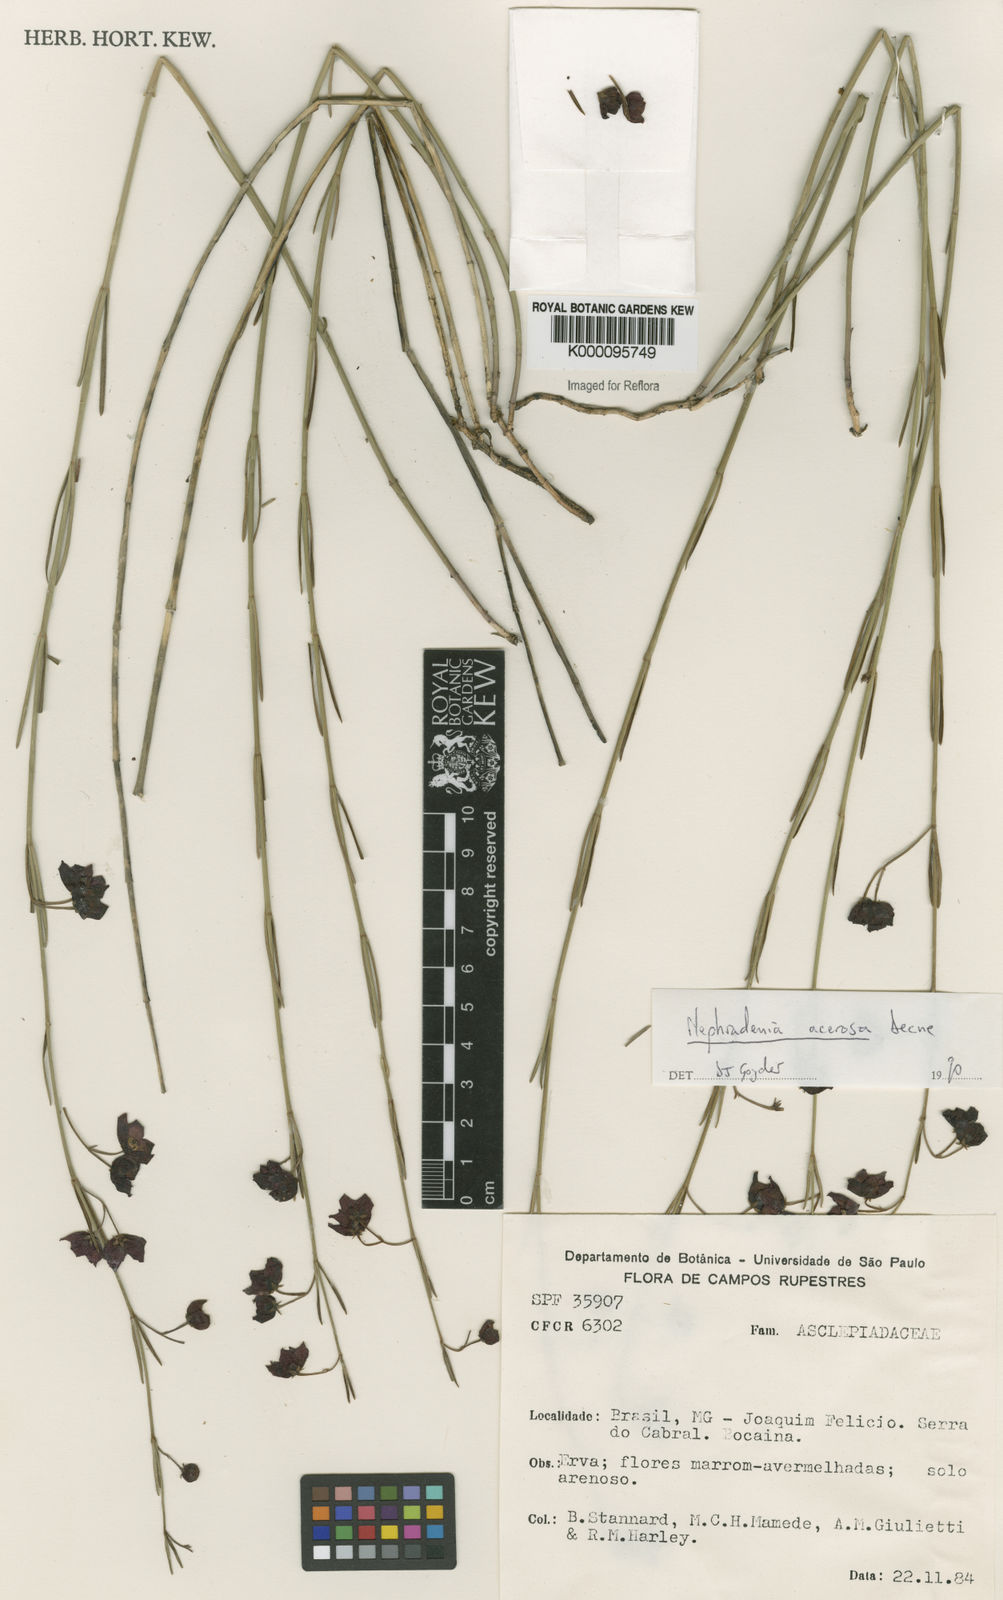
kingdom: Plantae
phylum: Tracheophyta
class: Magnoliopsida
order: Gentianales
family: Apocynaceae
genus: Nephradenia
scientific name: Nephradenia acerosa
